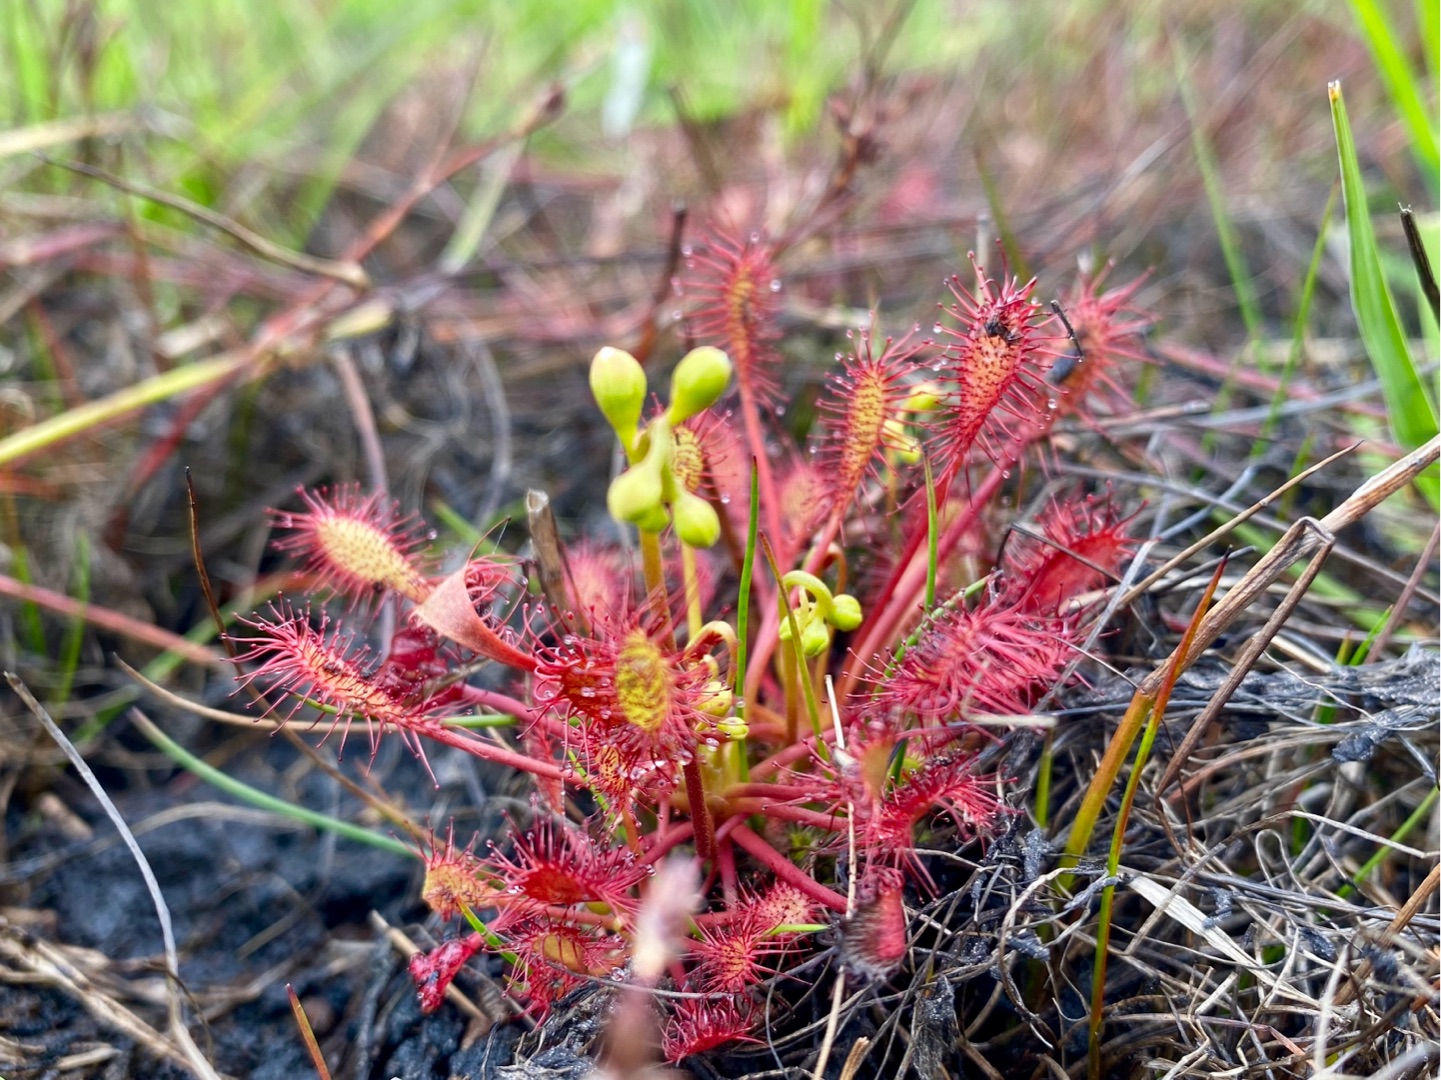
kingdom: Plantae
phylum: Tracheophyta
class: Magnoliopsida
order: Caryophyllales
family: Droseraceae
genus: Drosera
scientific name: Drosera intermedia
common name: Liden soldug
